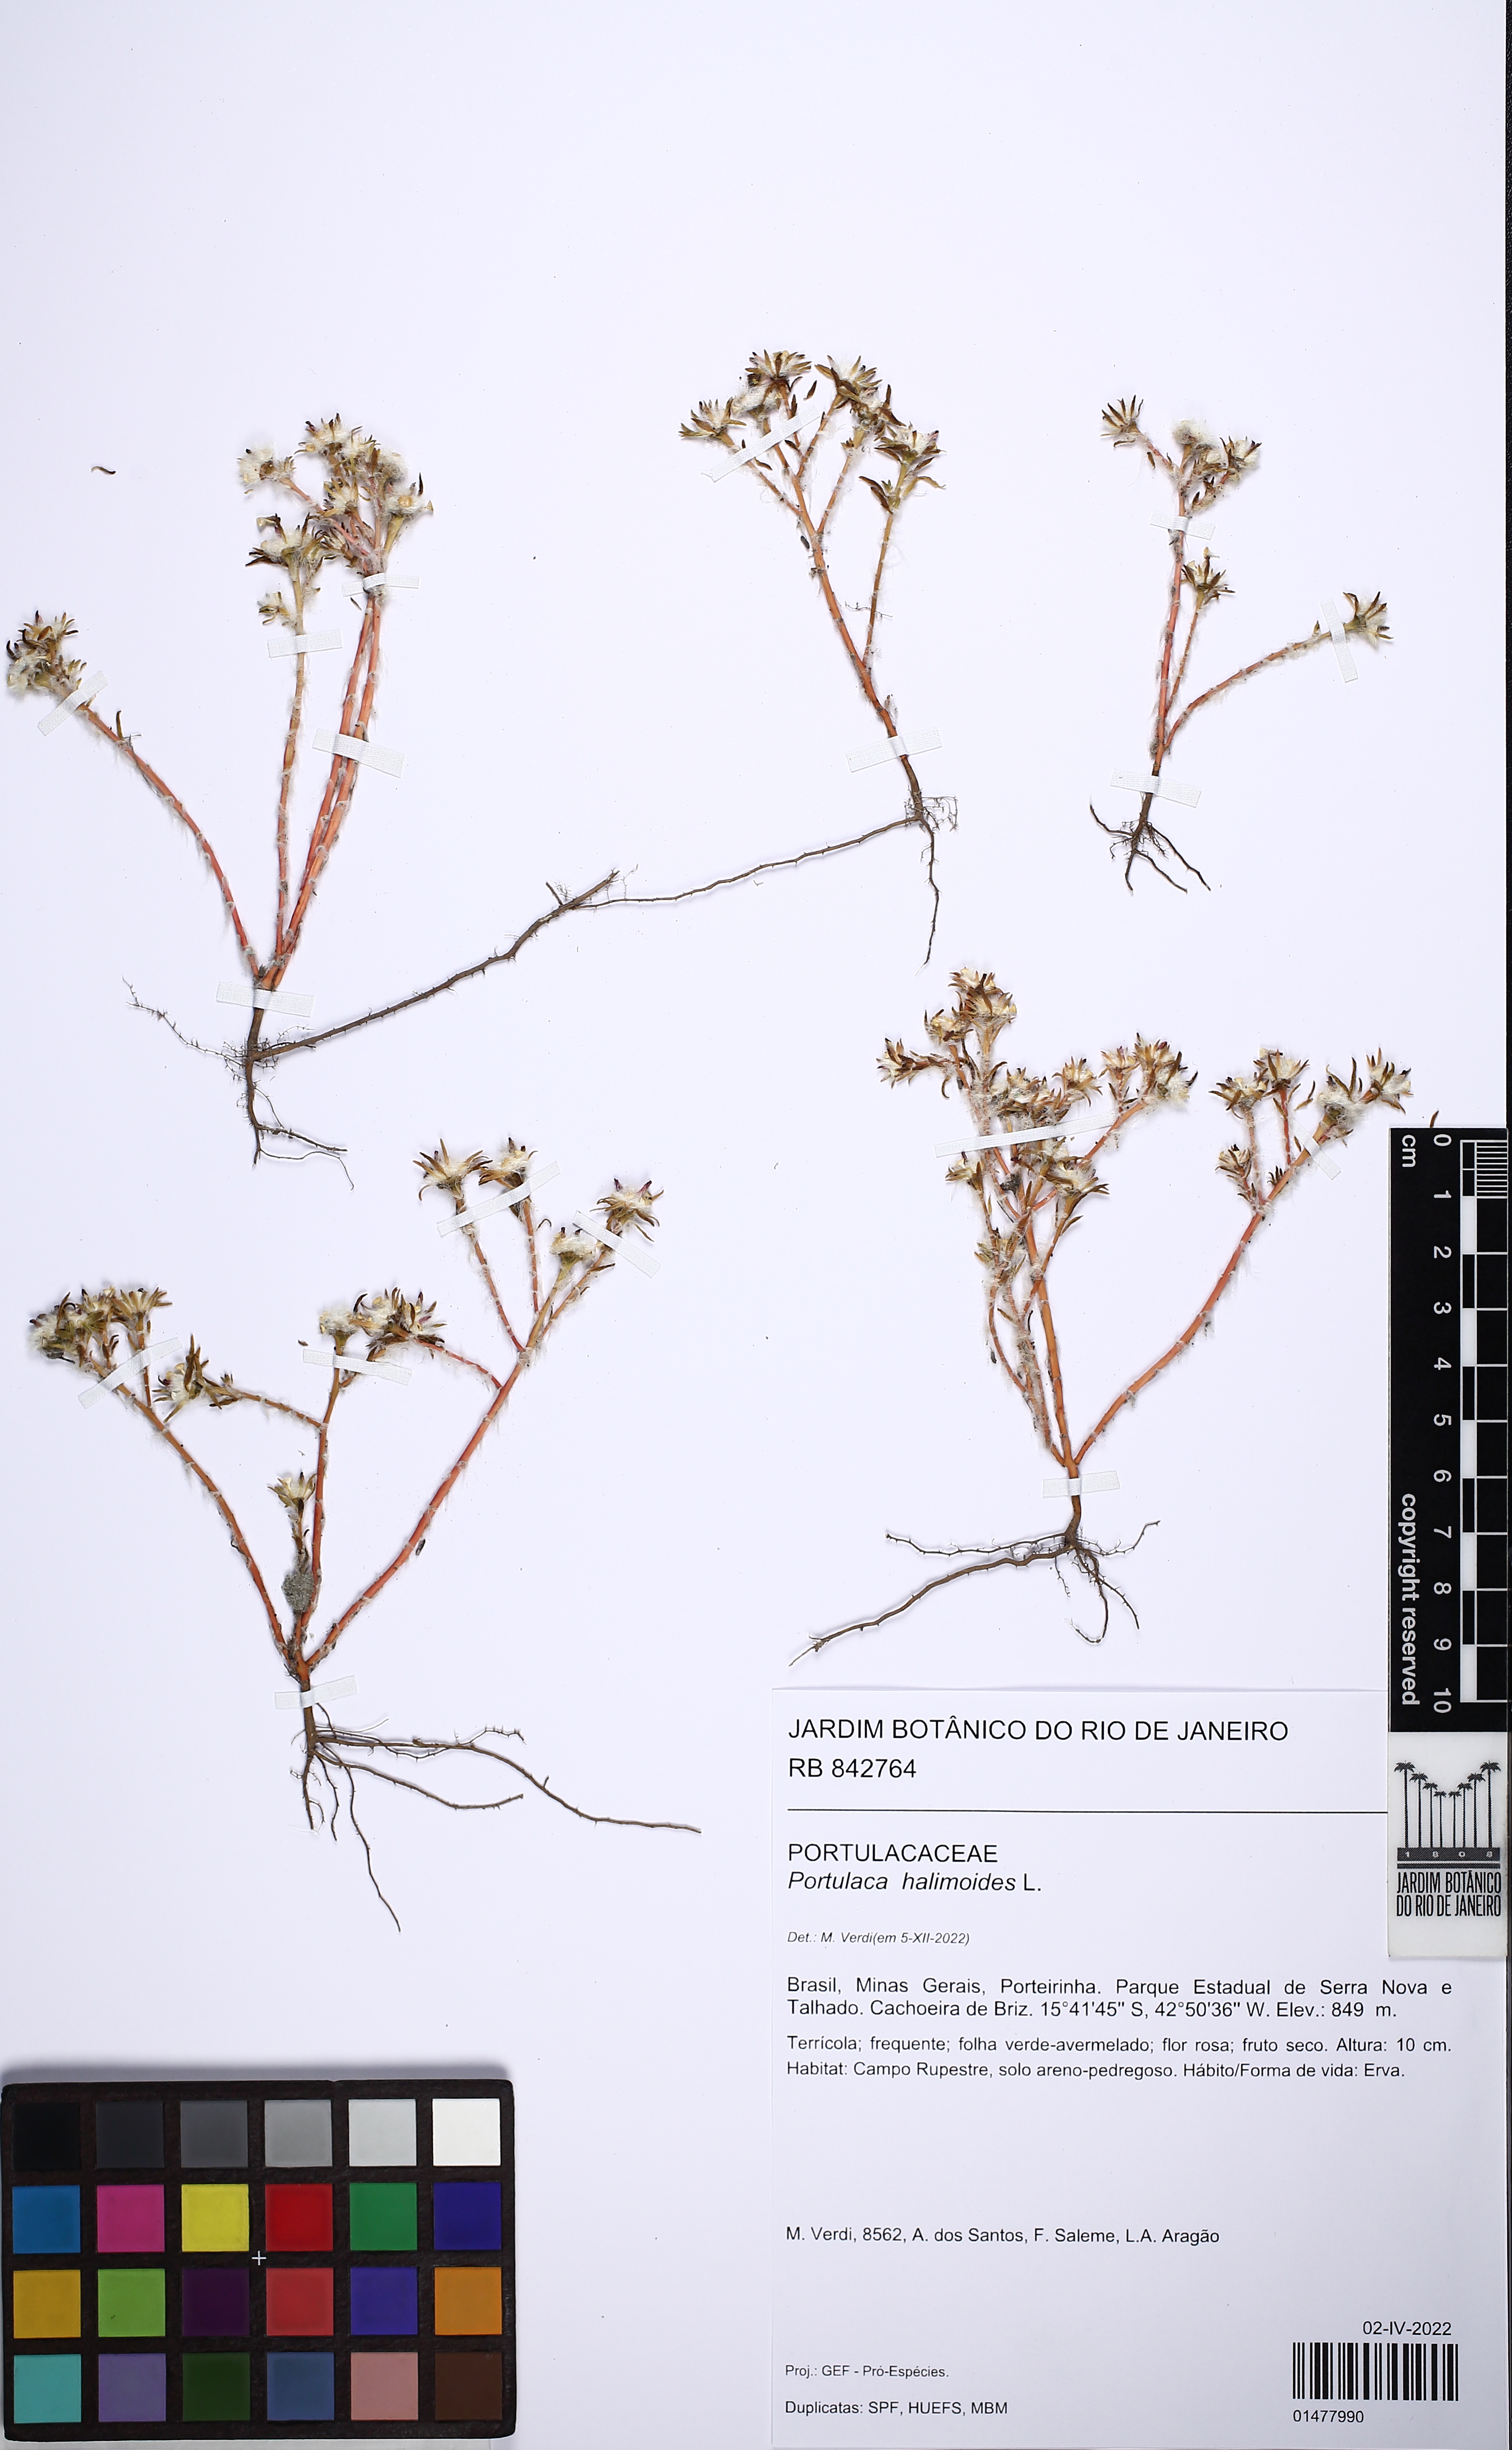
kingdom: Plantae
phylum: Tracheophyta
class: Magnoliopsida
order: Caryophyllales
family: Portulacaceae
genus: Portulaca
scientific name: Portulaca halimoides
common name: Silk cotton purslane
